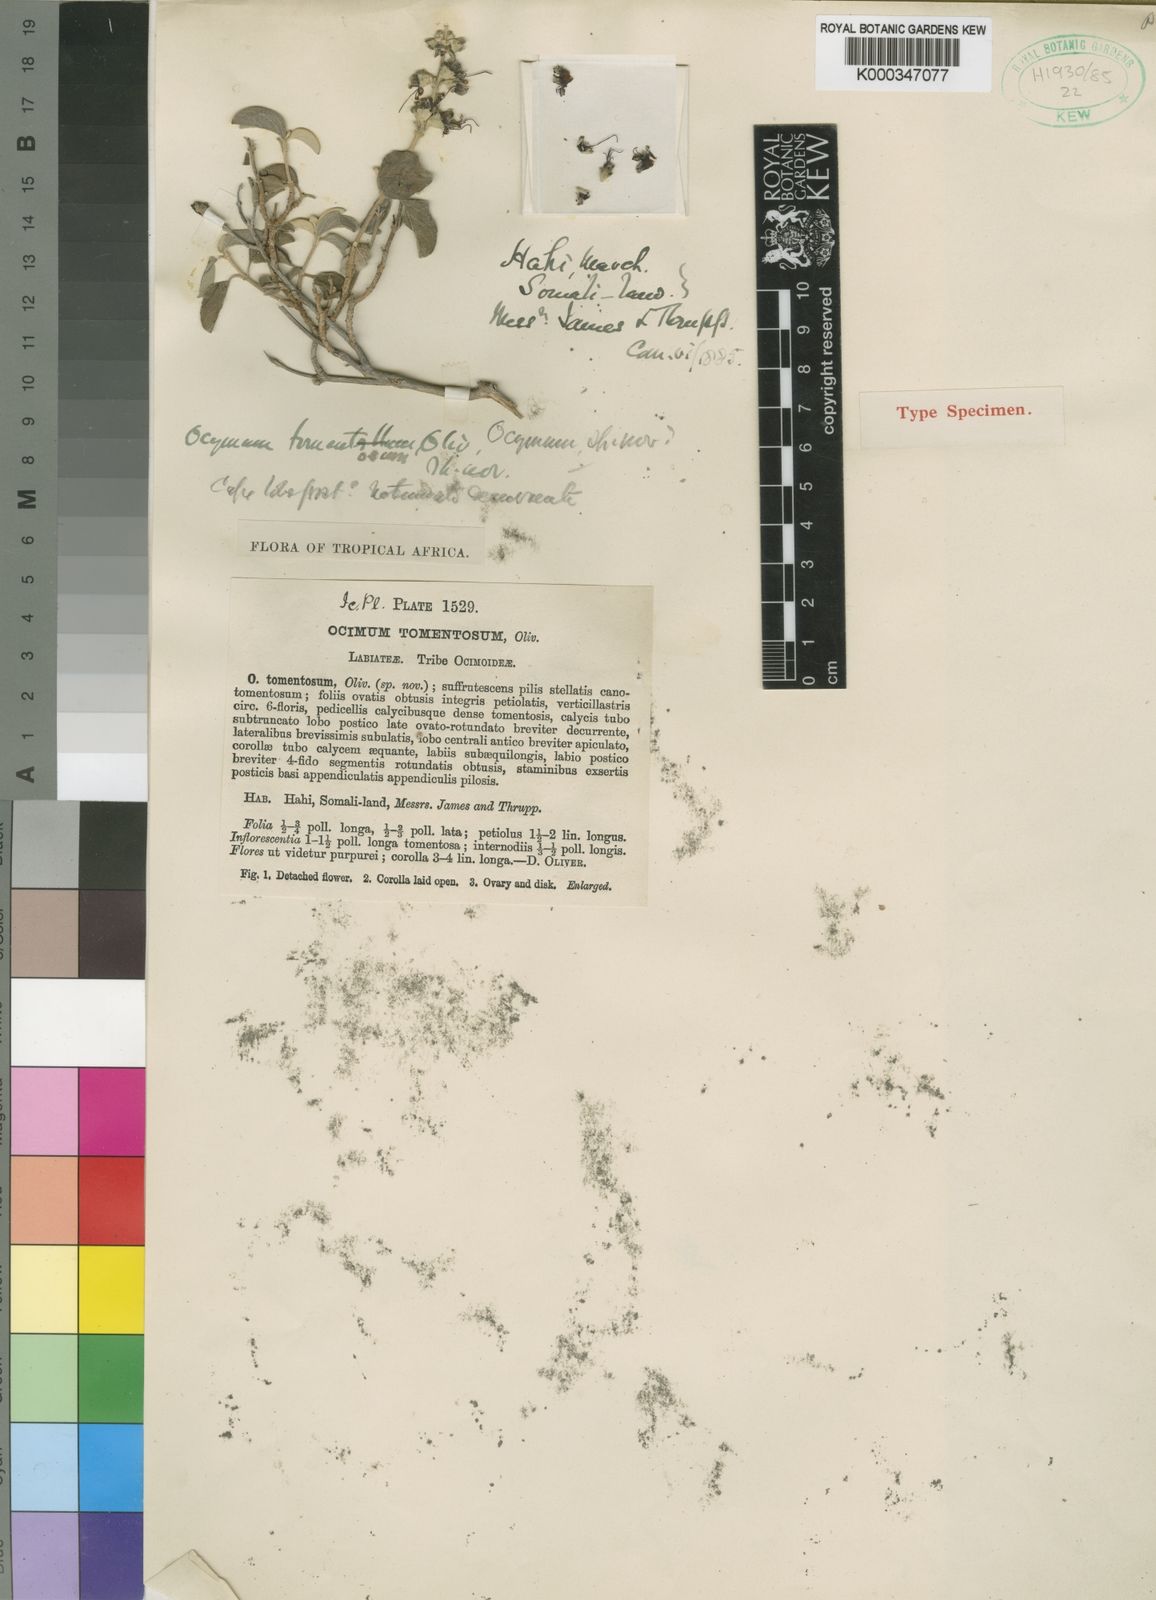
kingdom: Plantae
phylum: Tracheophyta
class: Magnoliopsida
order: Lamiales
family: Lamiaceae
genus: Ocimum
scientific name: Ocimum jamesii
